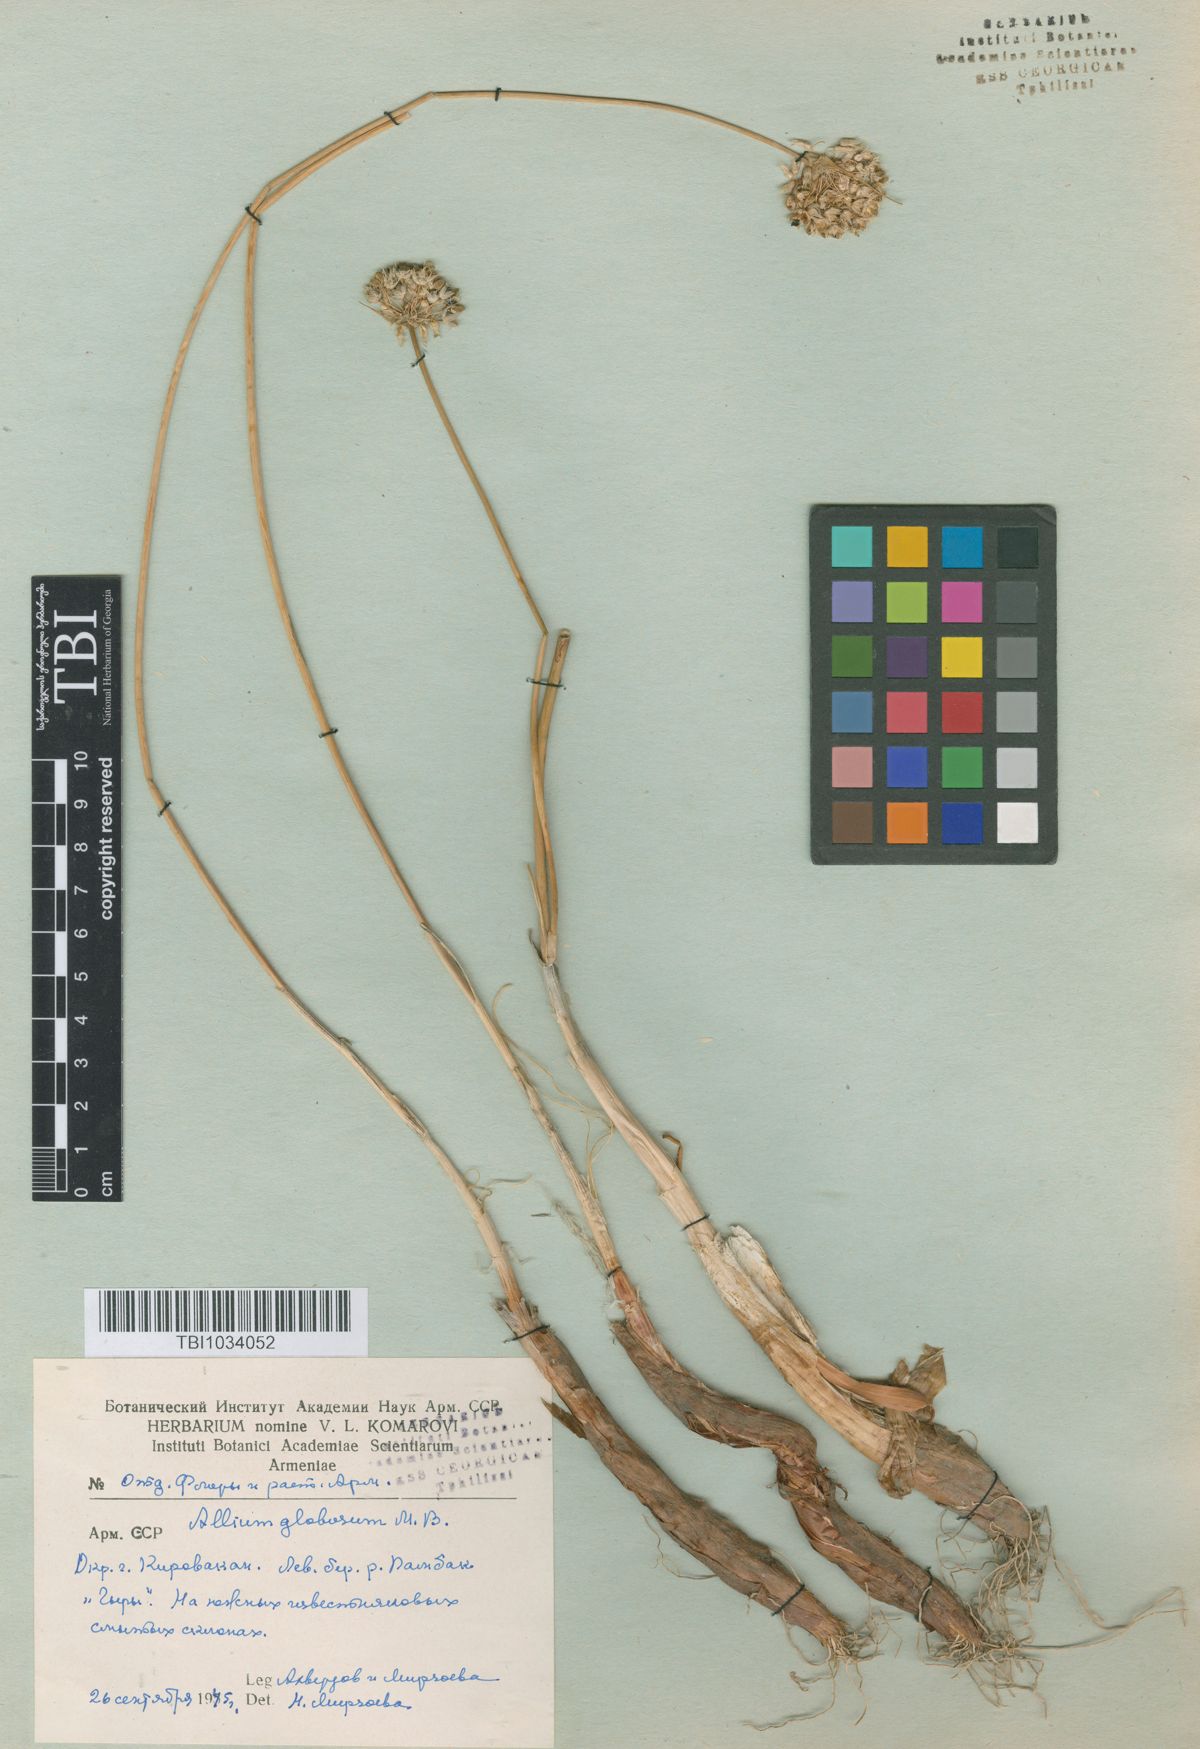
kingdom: Plantae
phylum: Tracheophyta
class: Liliopsida
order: Asparagales
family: Amaryllidaceae
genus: Allium
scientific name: Allium saxatile
